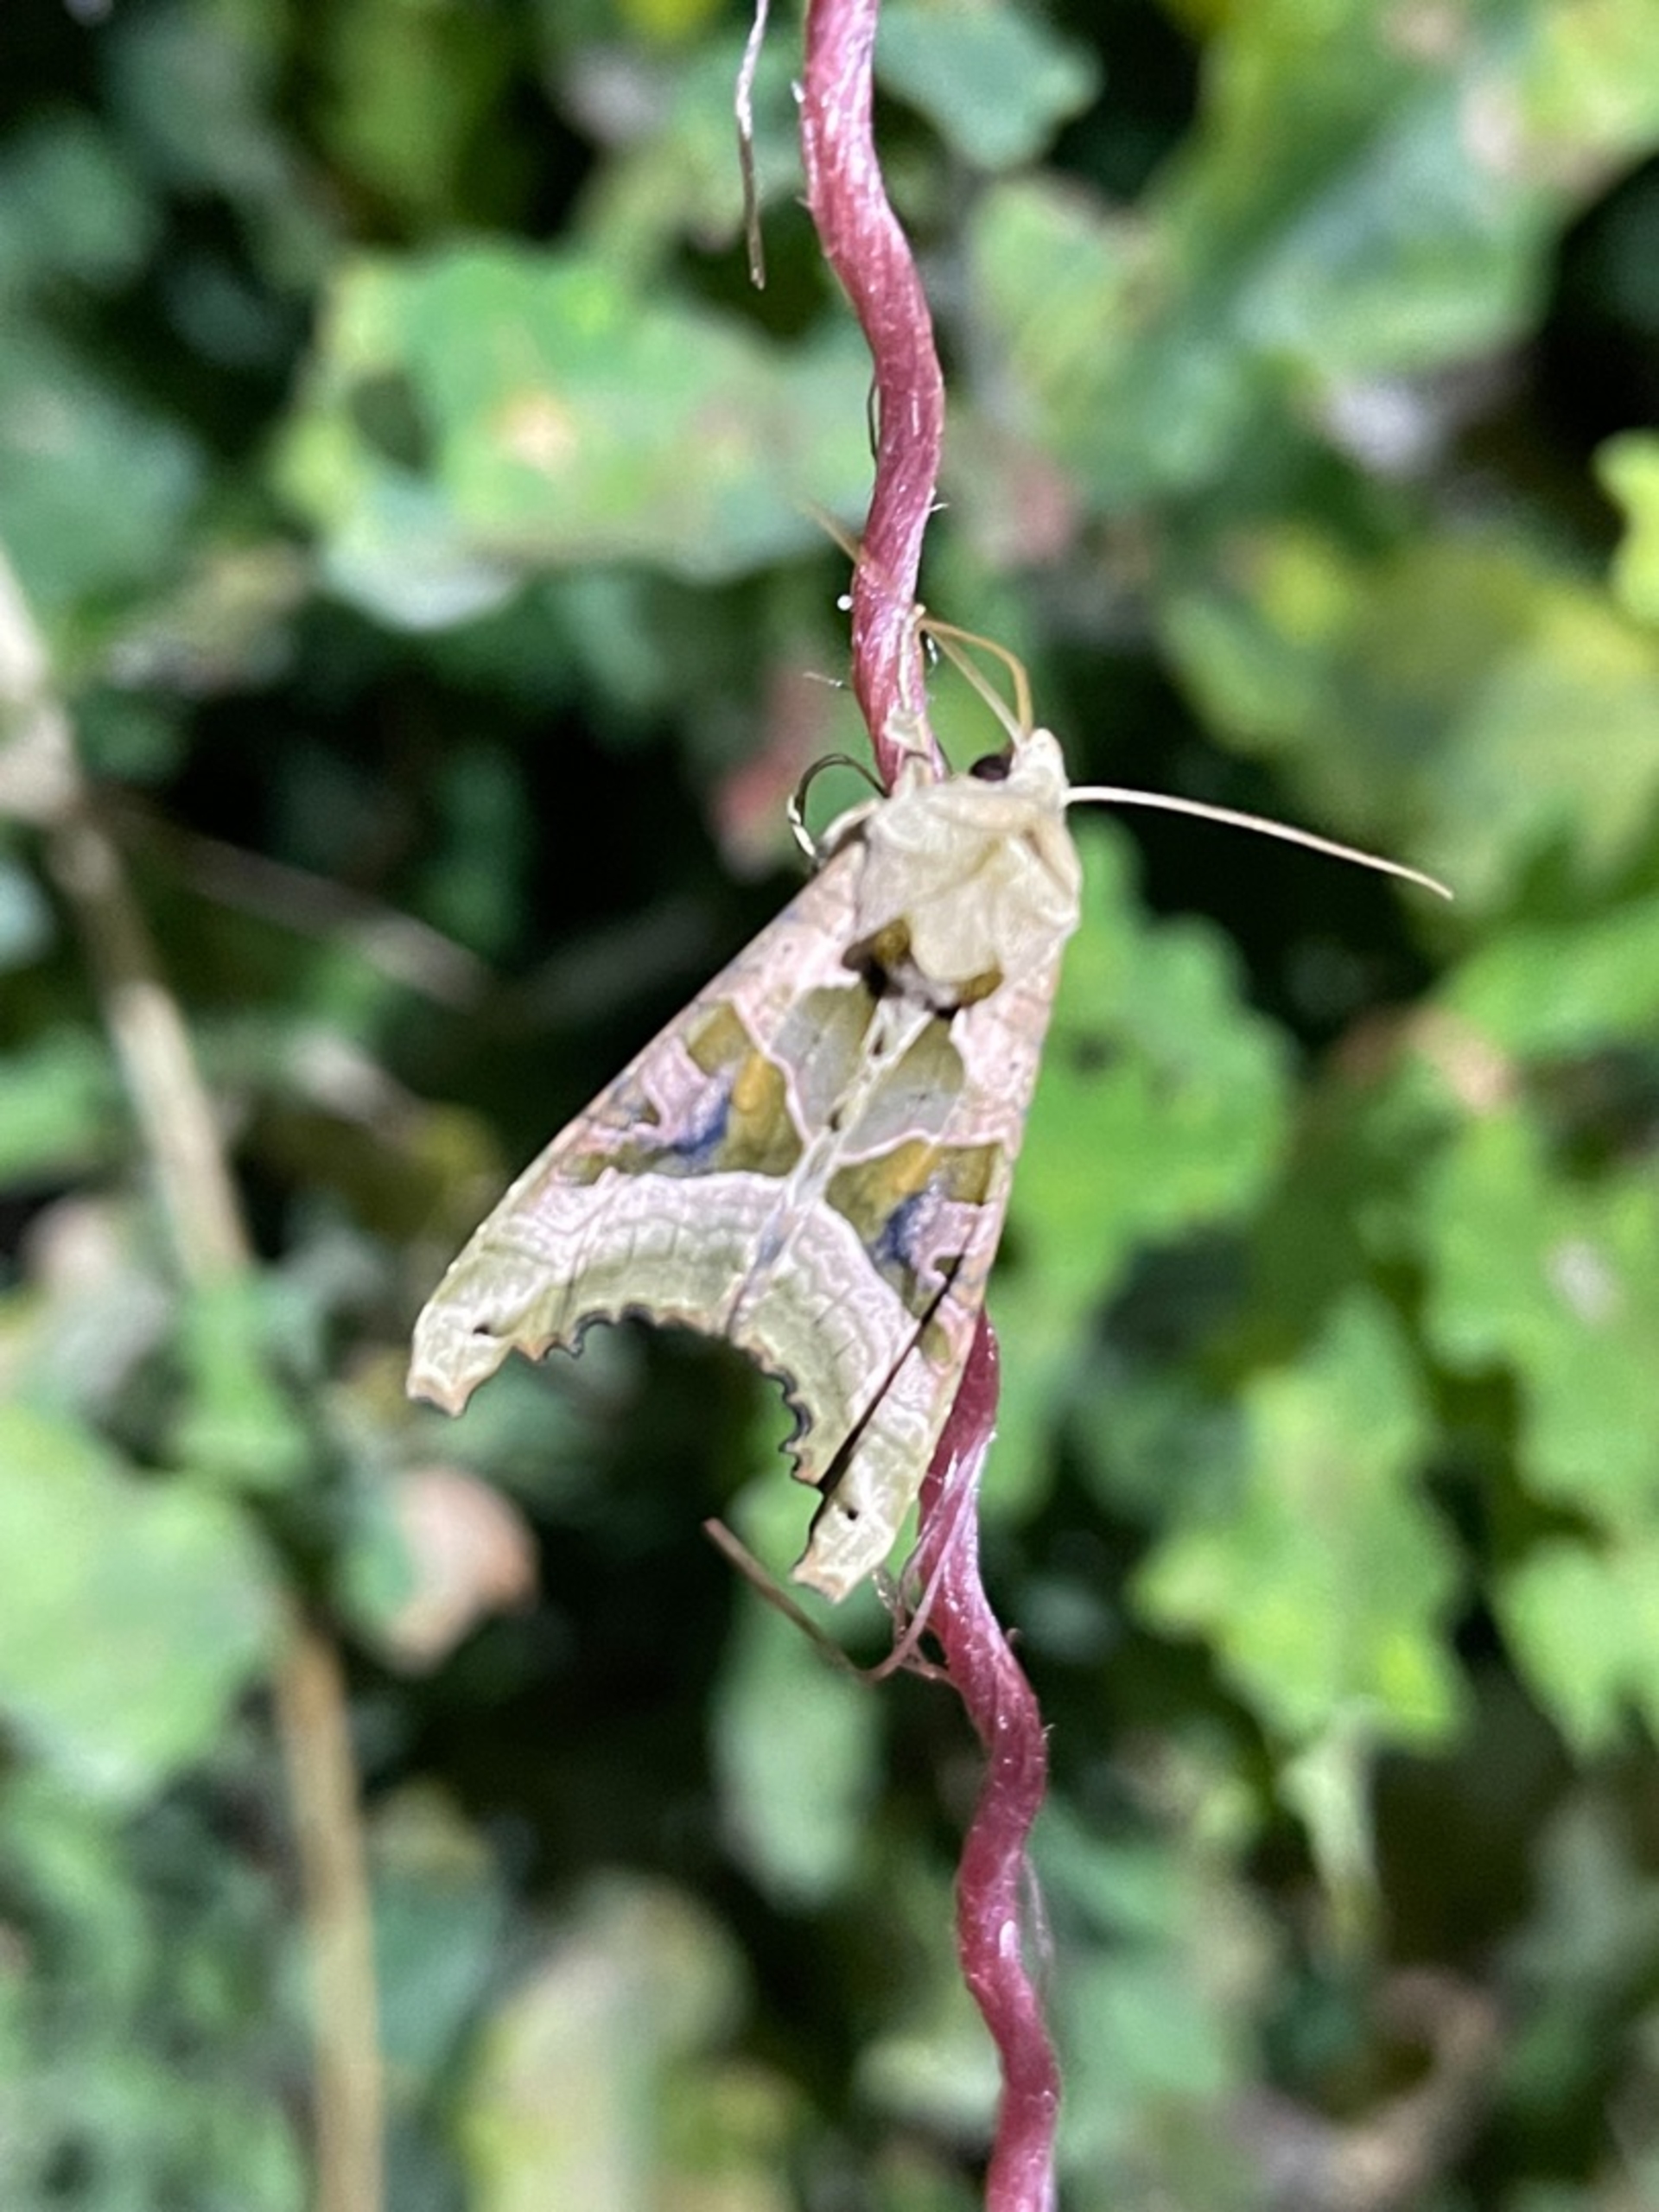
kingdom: Animalia
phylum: Arthropoda
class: Insecta
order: Lepidoptera
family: Noctuidae
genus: Phlogophora
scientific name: Phlogophora meticulosa
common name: Agatugle
